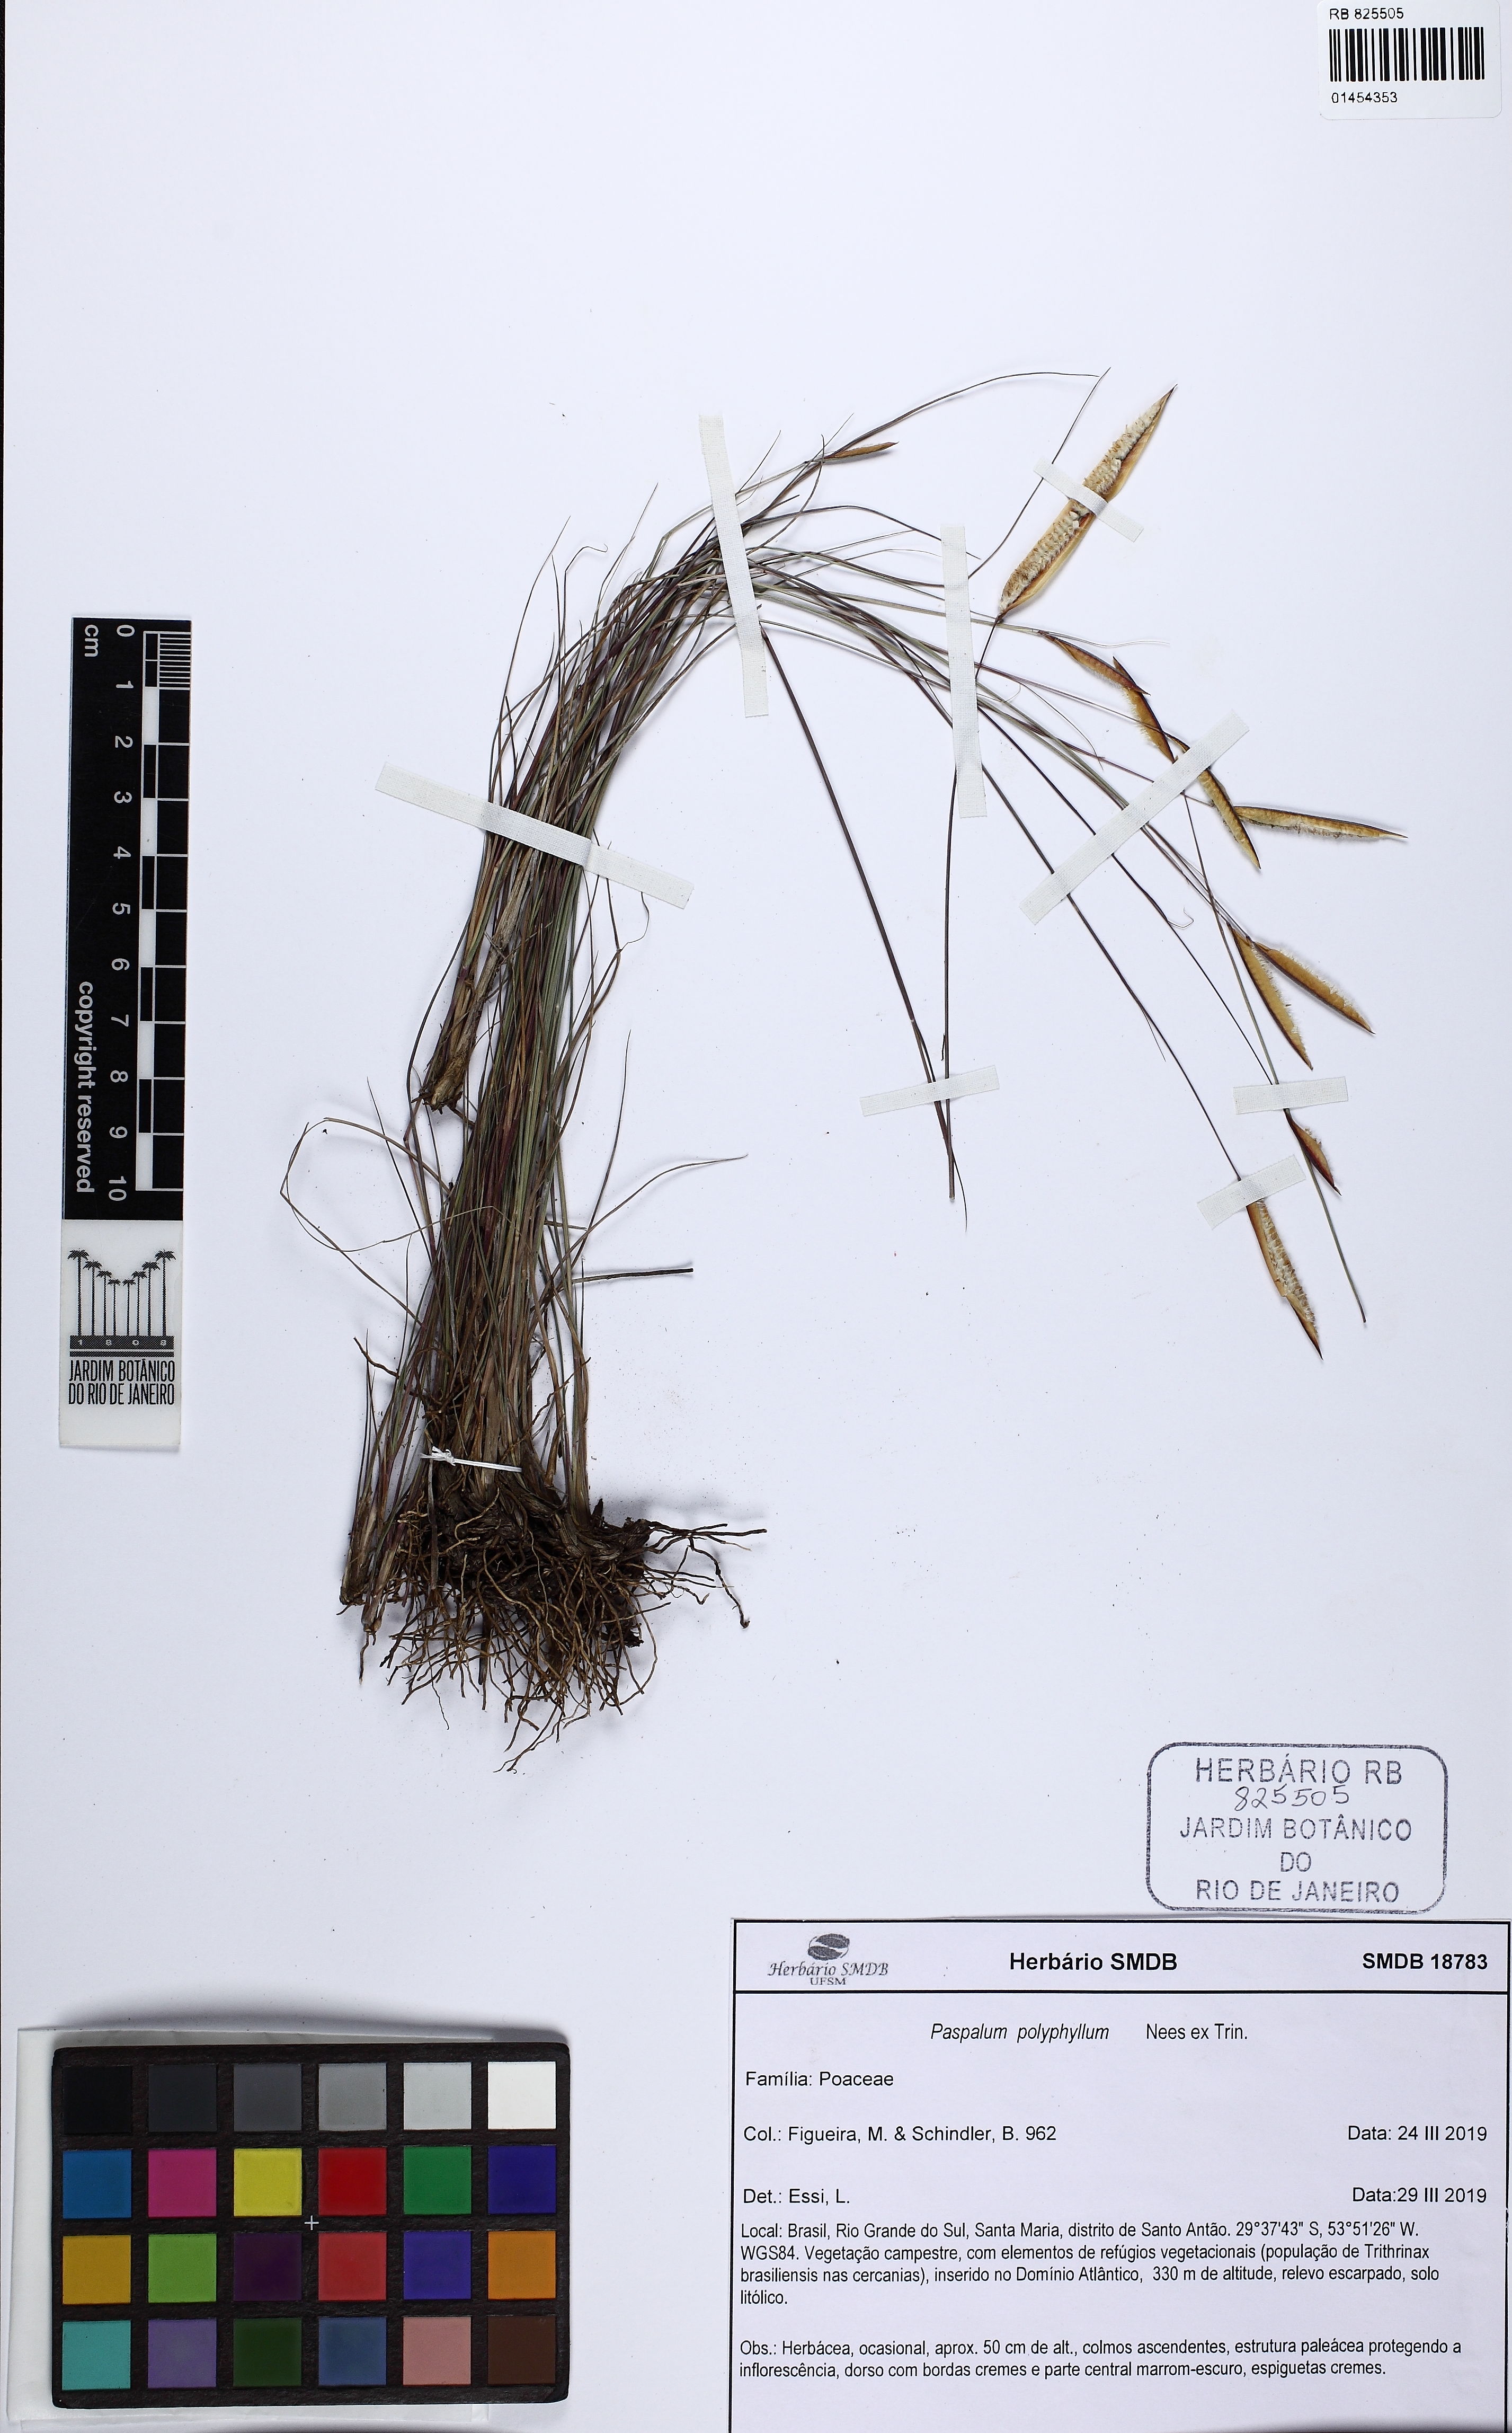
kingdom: Plantae
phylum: Tracheophyta
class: Liliopsida
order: Poales
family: Poaceae
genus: Paspalum
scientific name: Paspalum polyphyllum
